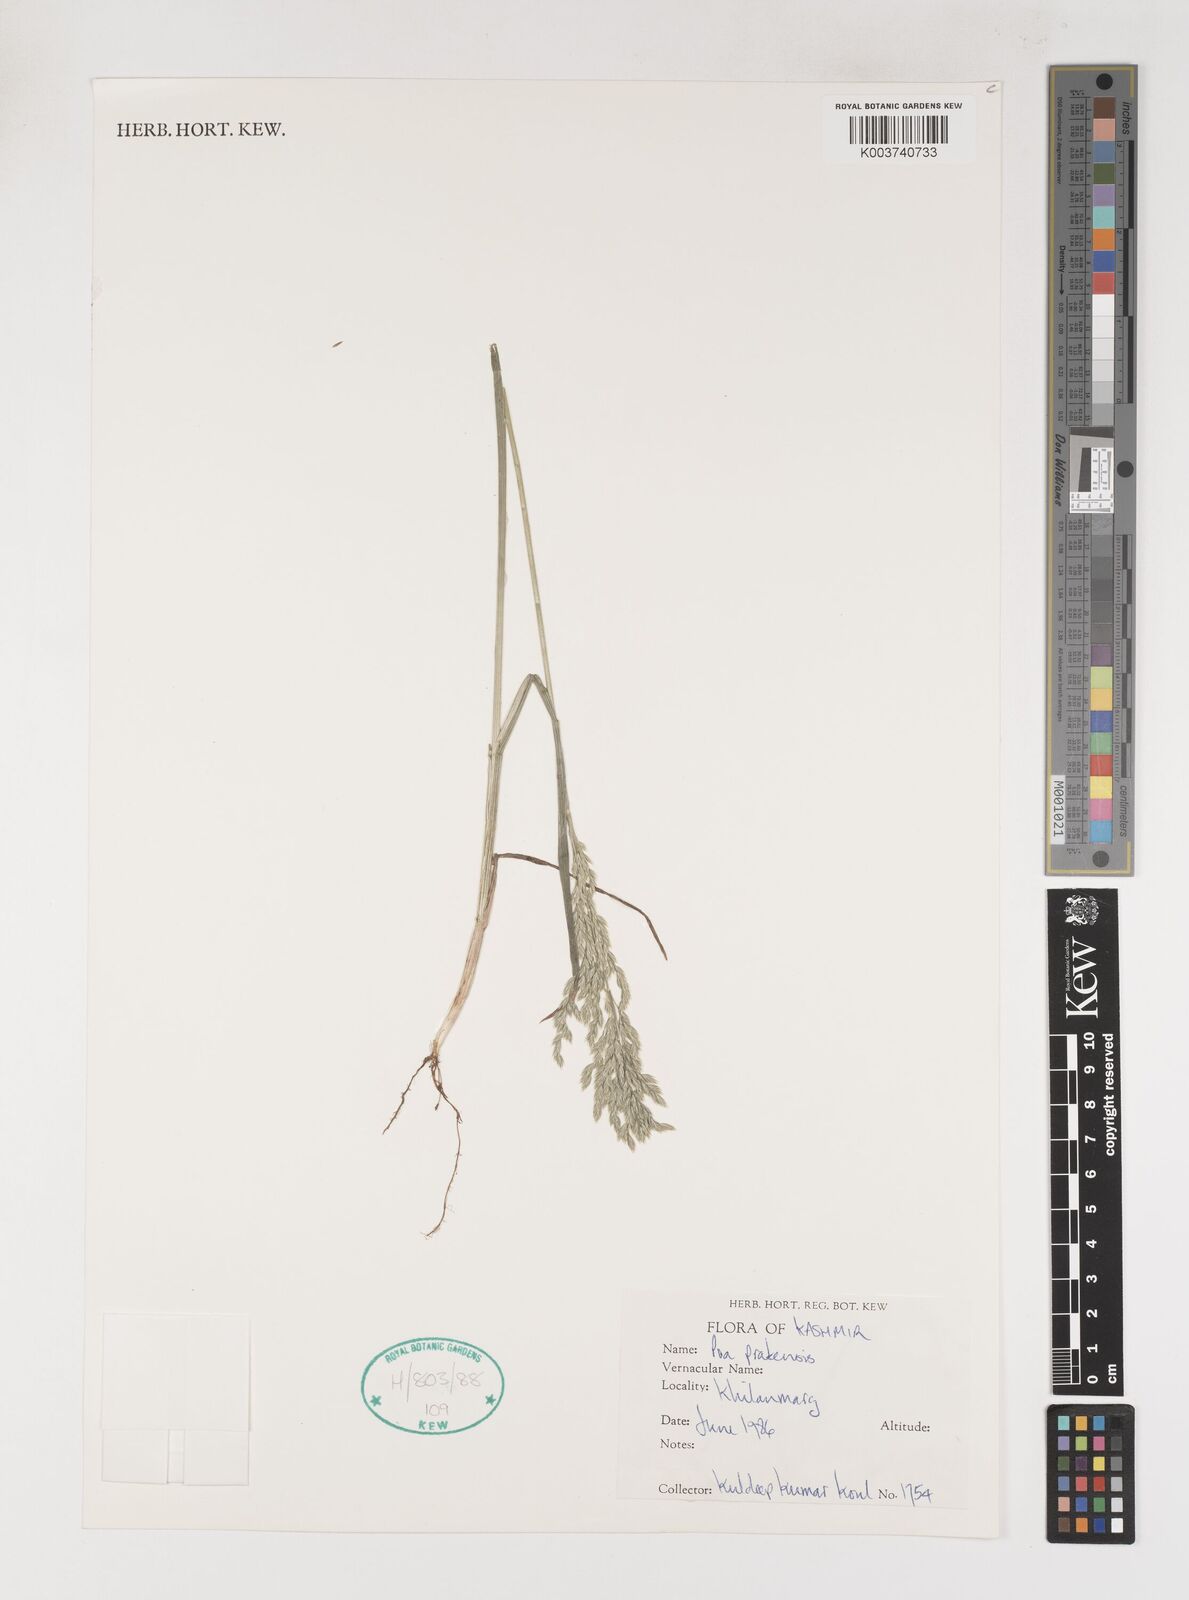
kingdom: Plantae
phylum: Tracheophyta
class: Liliopsida
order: Poales
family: Poaceae
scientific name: Poaceae
